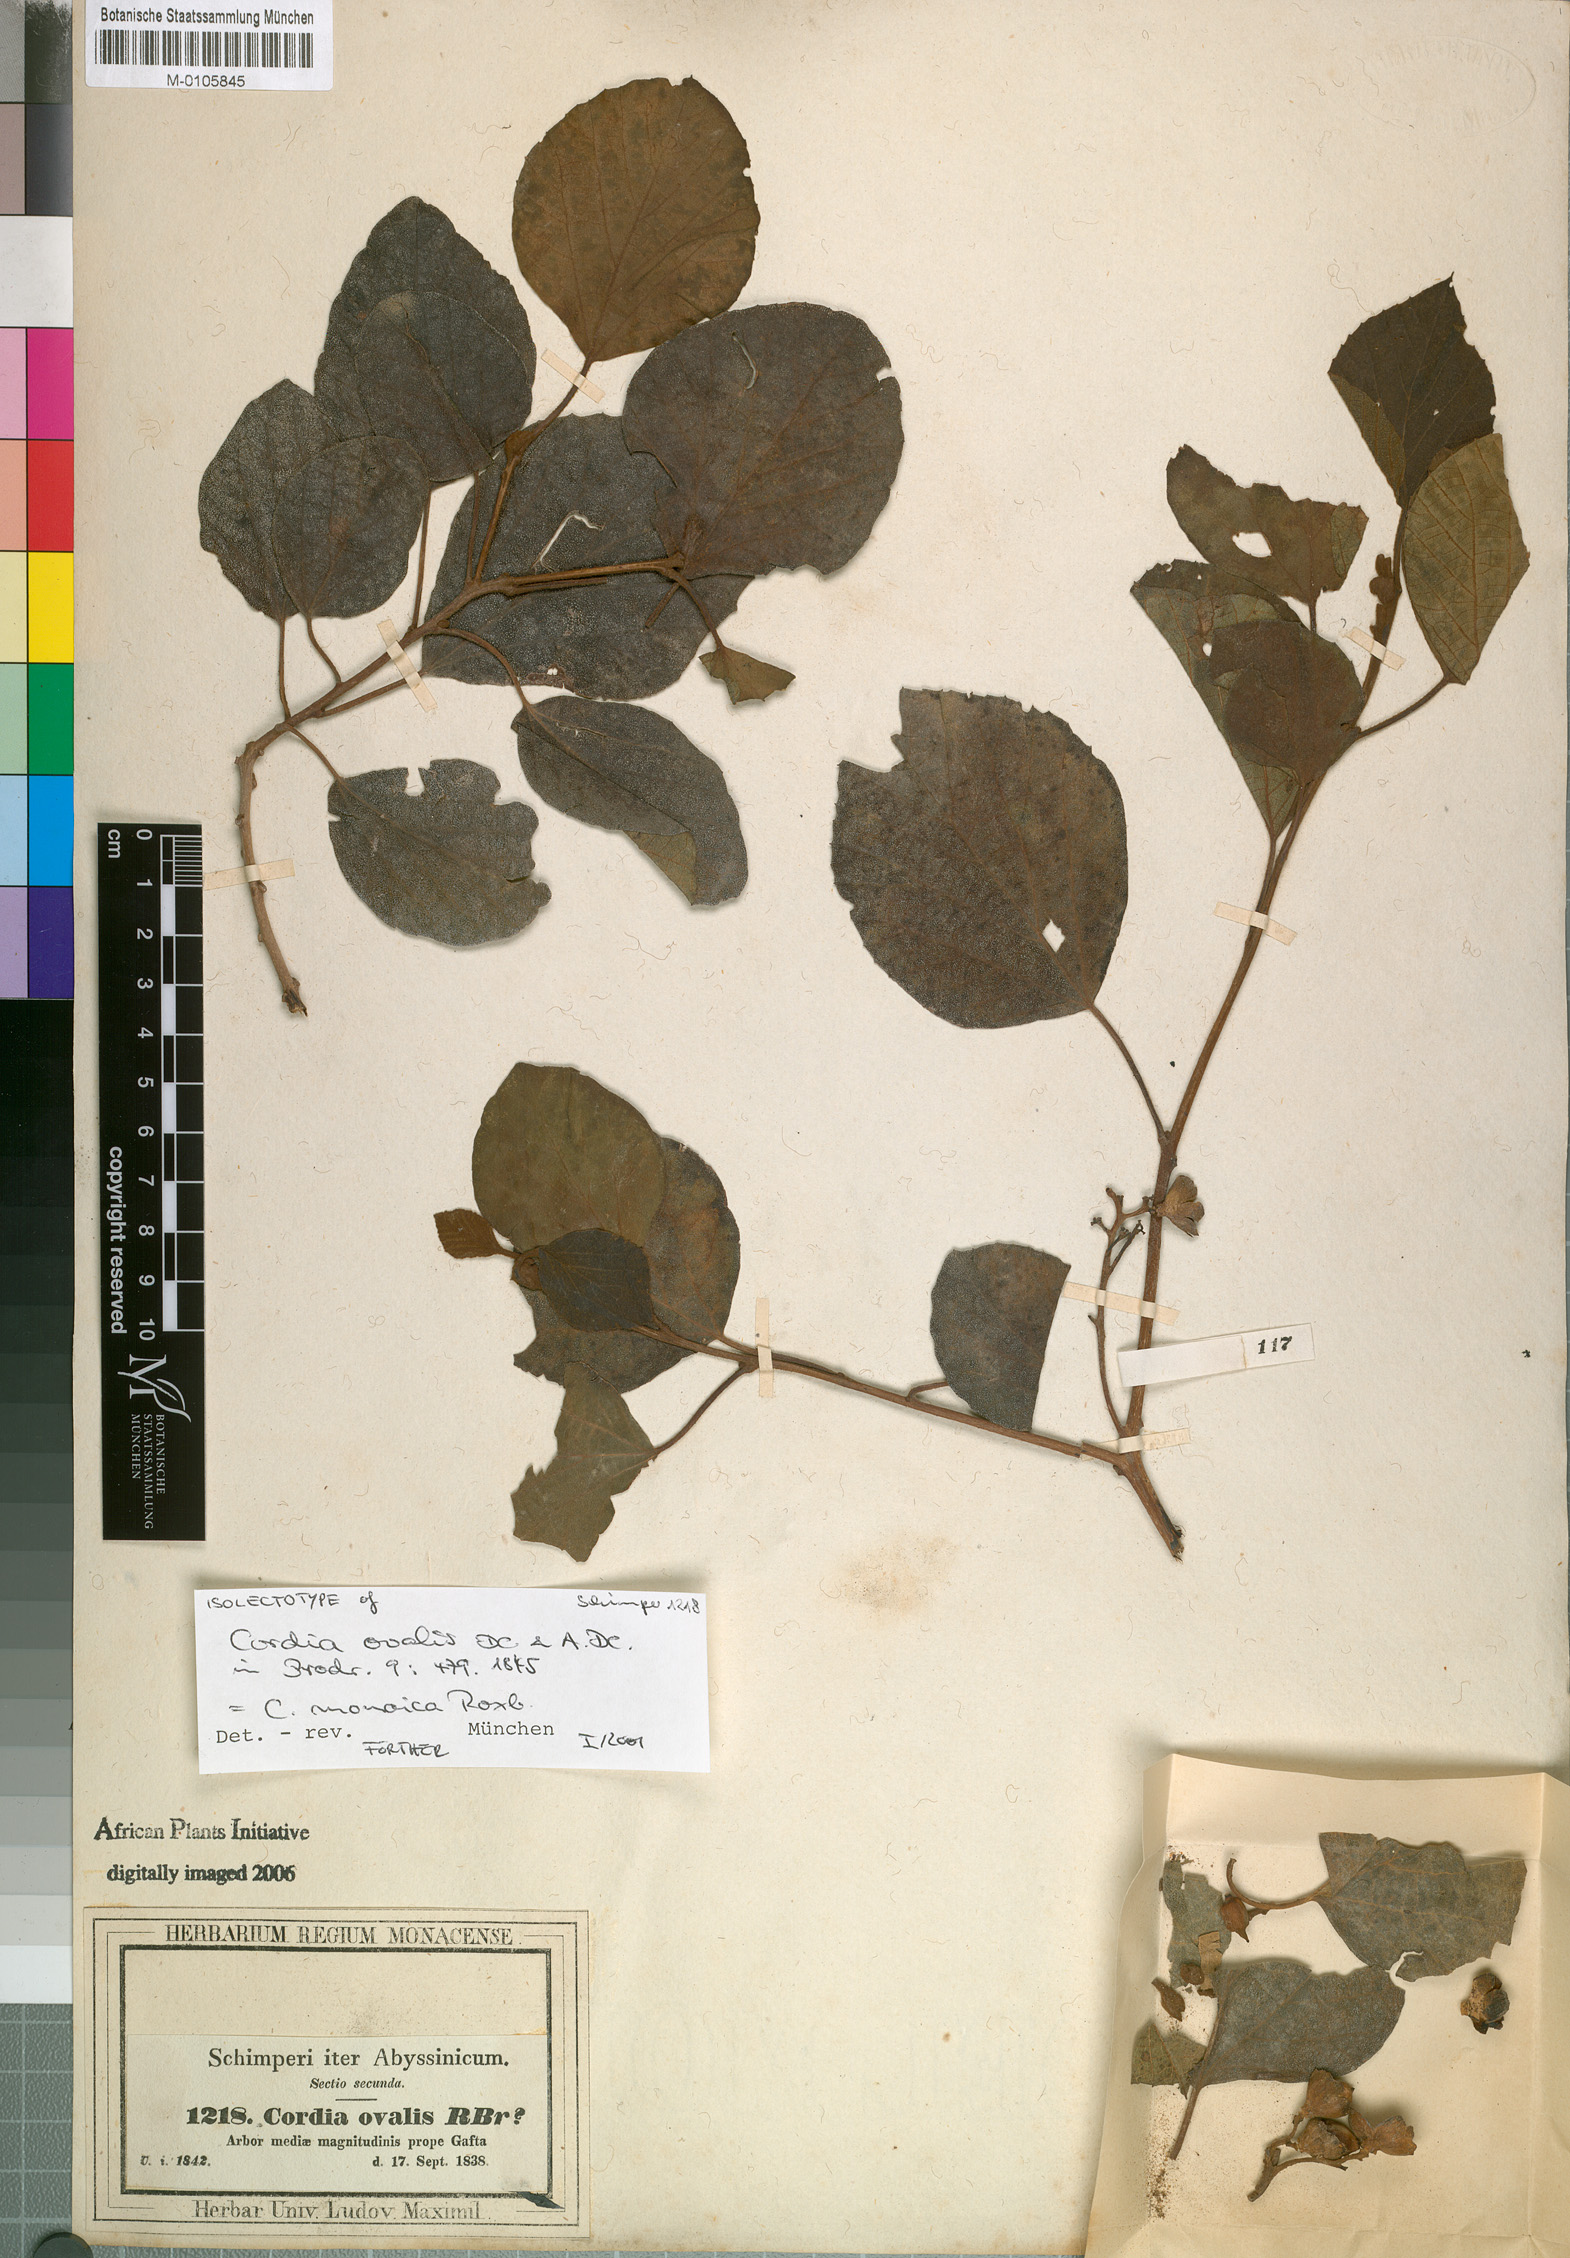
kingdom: Plantae
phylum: Tracheophyta
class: Magnoliopsida
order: Boraginales
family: Cordiaceae
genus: Cordia
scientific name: Cordia monoica
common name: Snot berry
